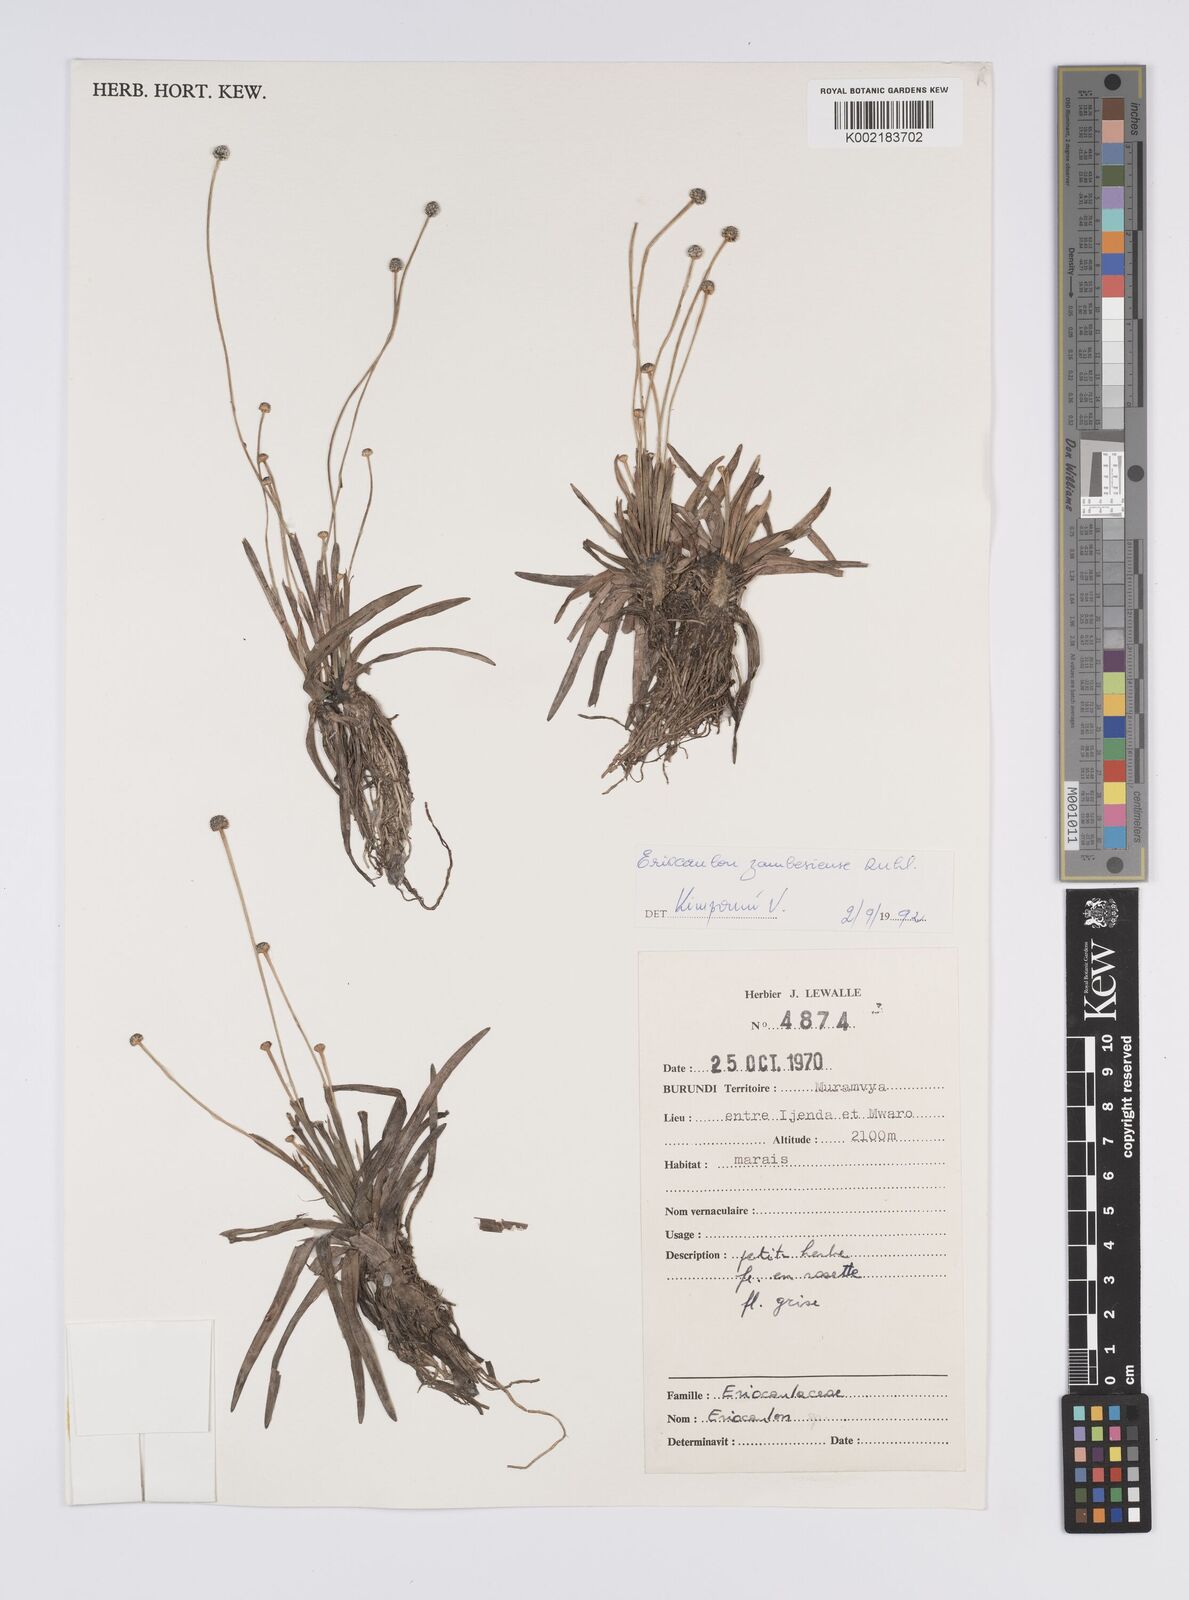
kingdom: Plantae
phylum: Tracheophyta
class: Liliopsida
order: Poales
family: Eriocaulaceae
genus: Eriocaulon
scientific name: Eriocaulon zambesiense
